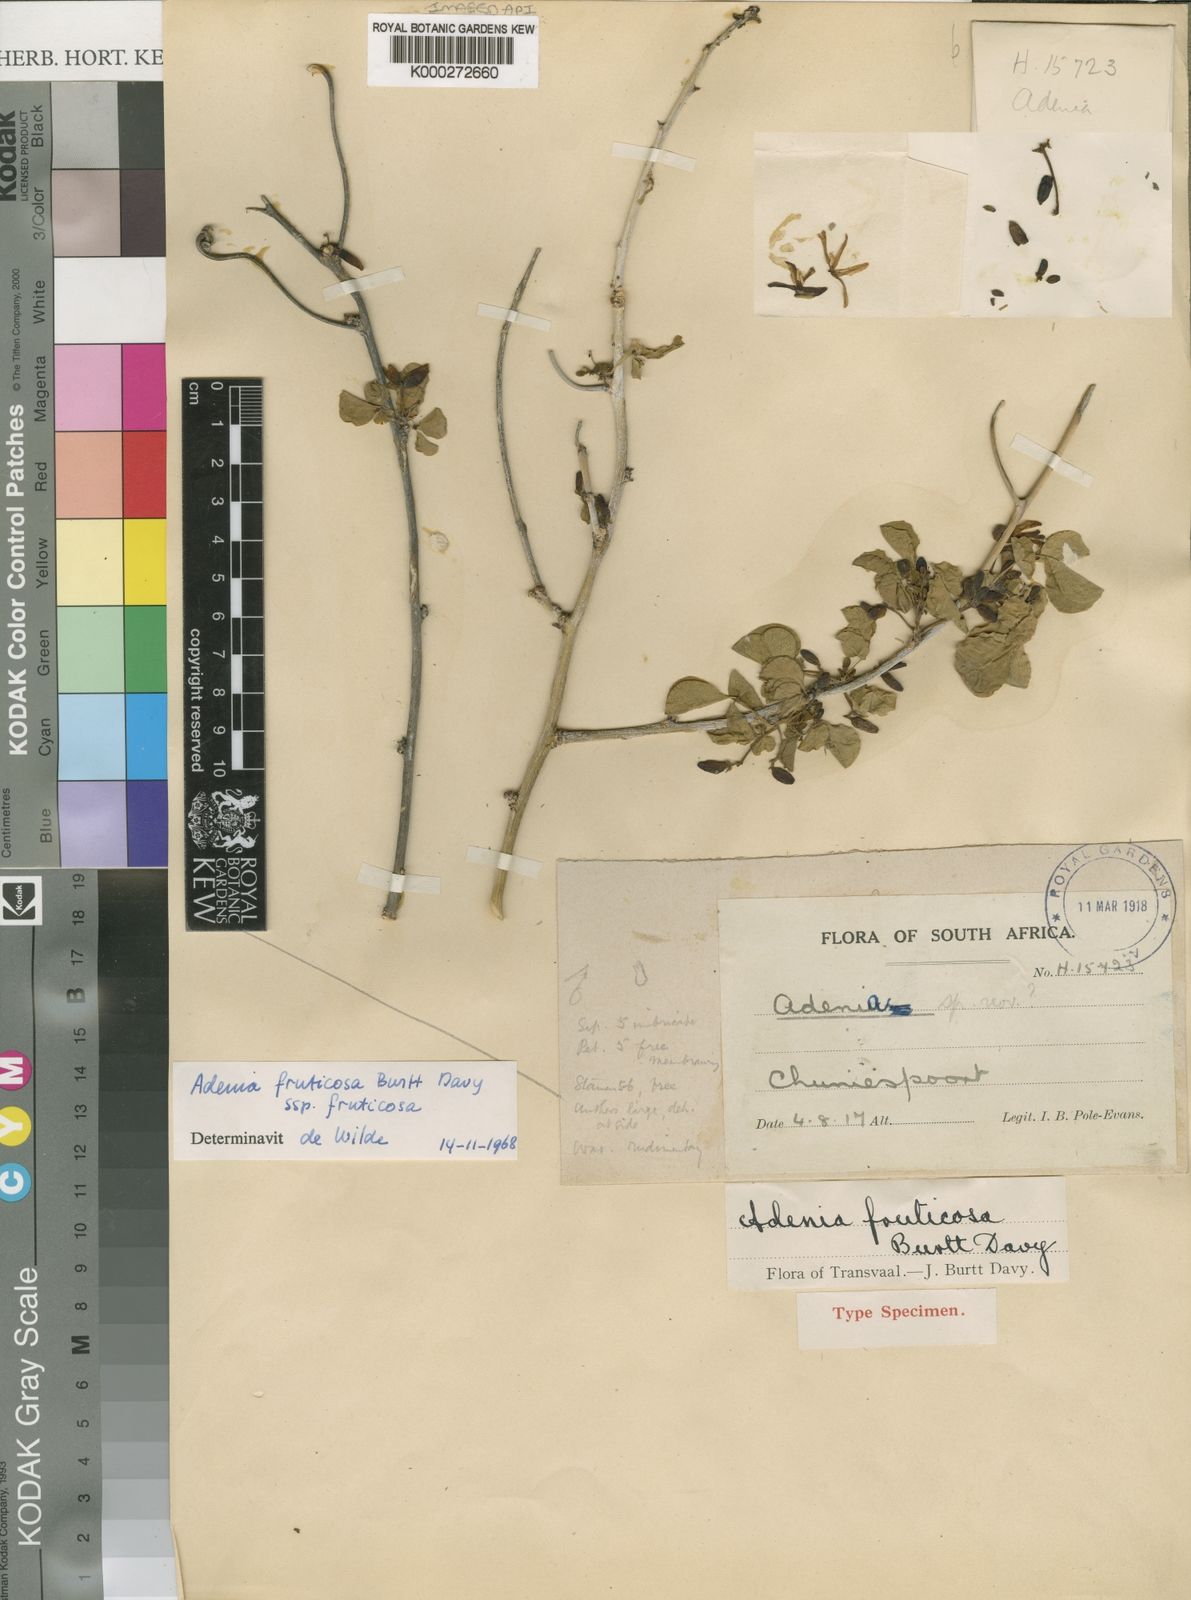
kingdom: Plantae
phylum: Tracheophyta
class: Magnoliopsida
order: Malpighiales
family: Passifloraceae
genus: Adenia
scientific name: Adenia fruticosa
